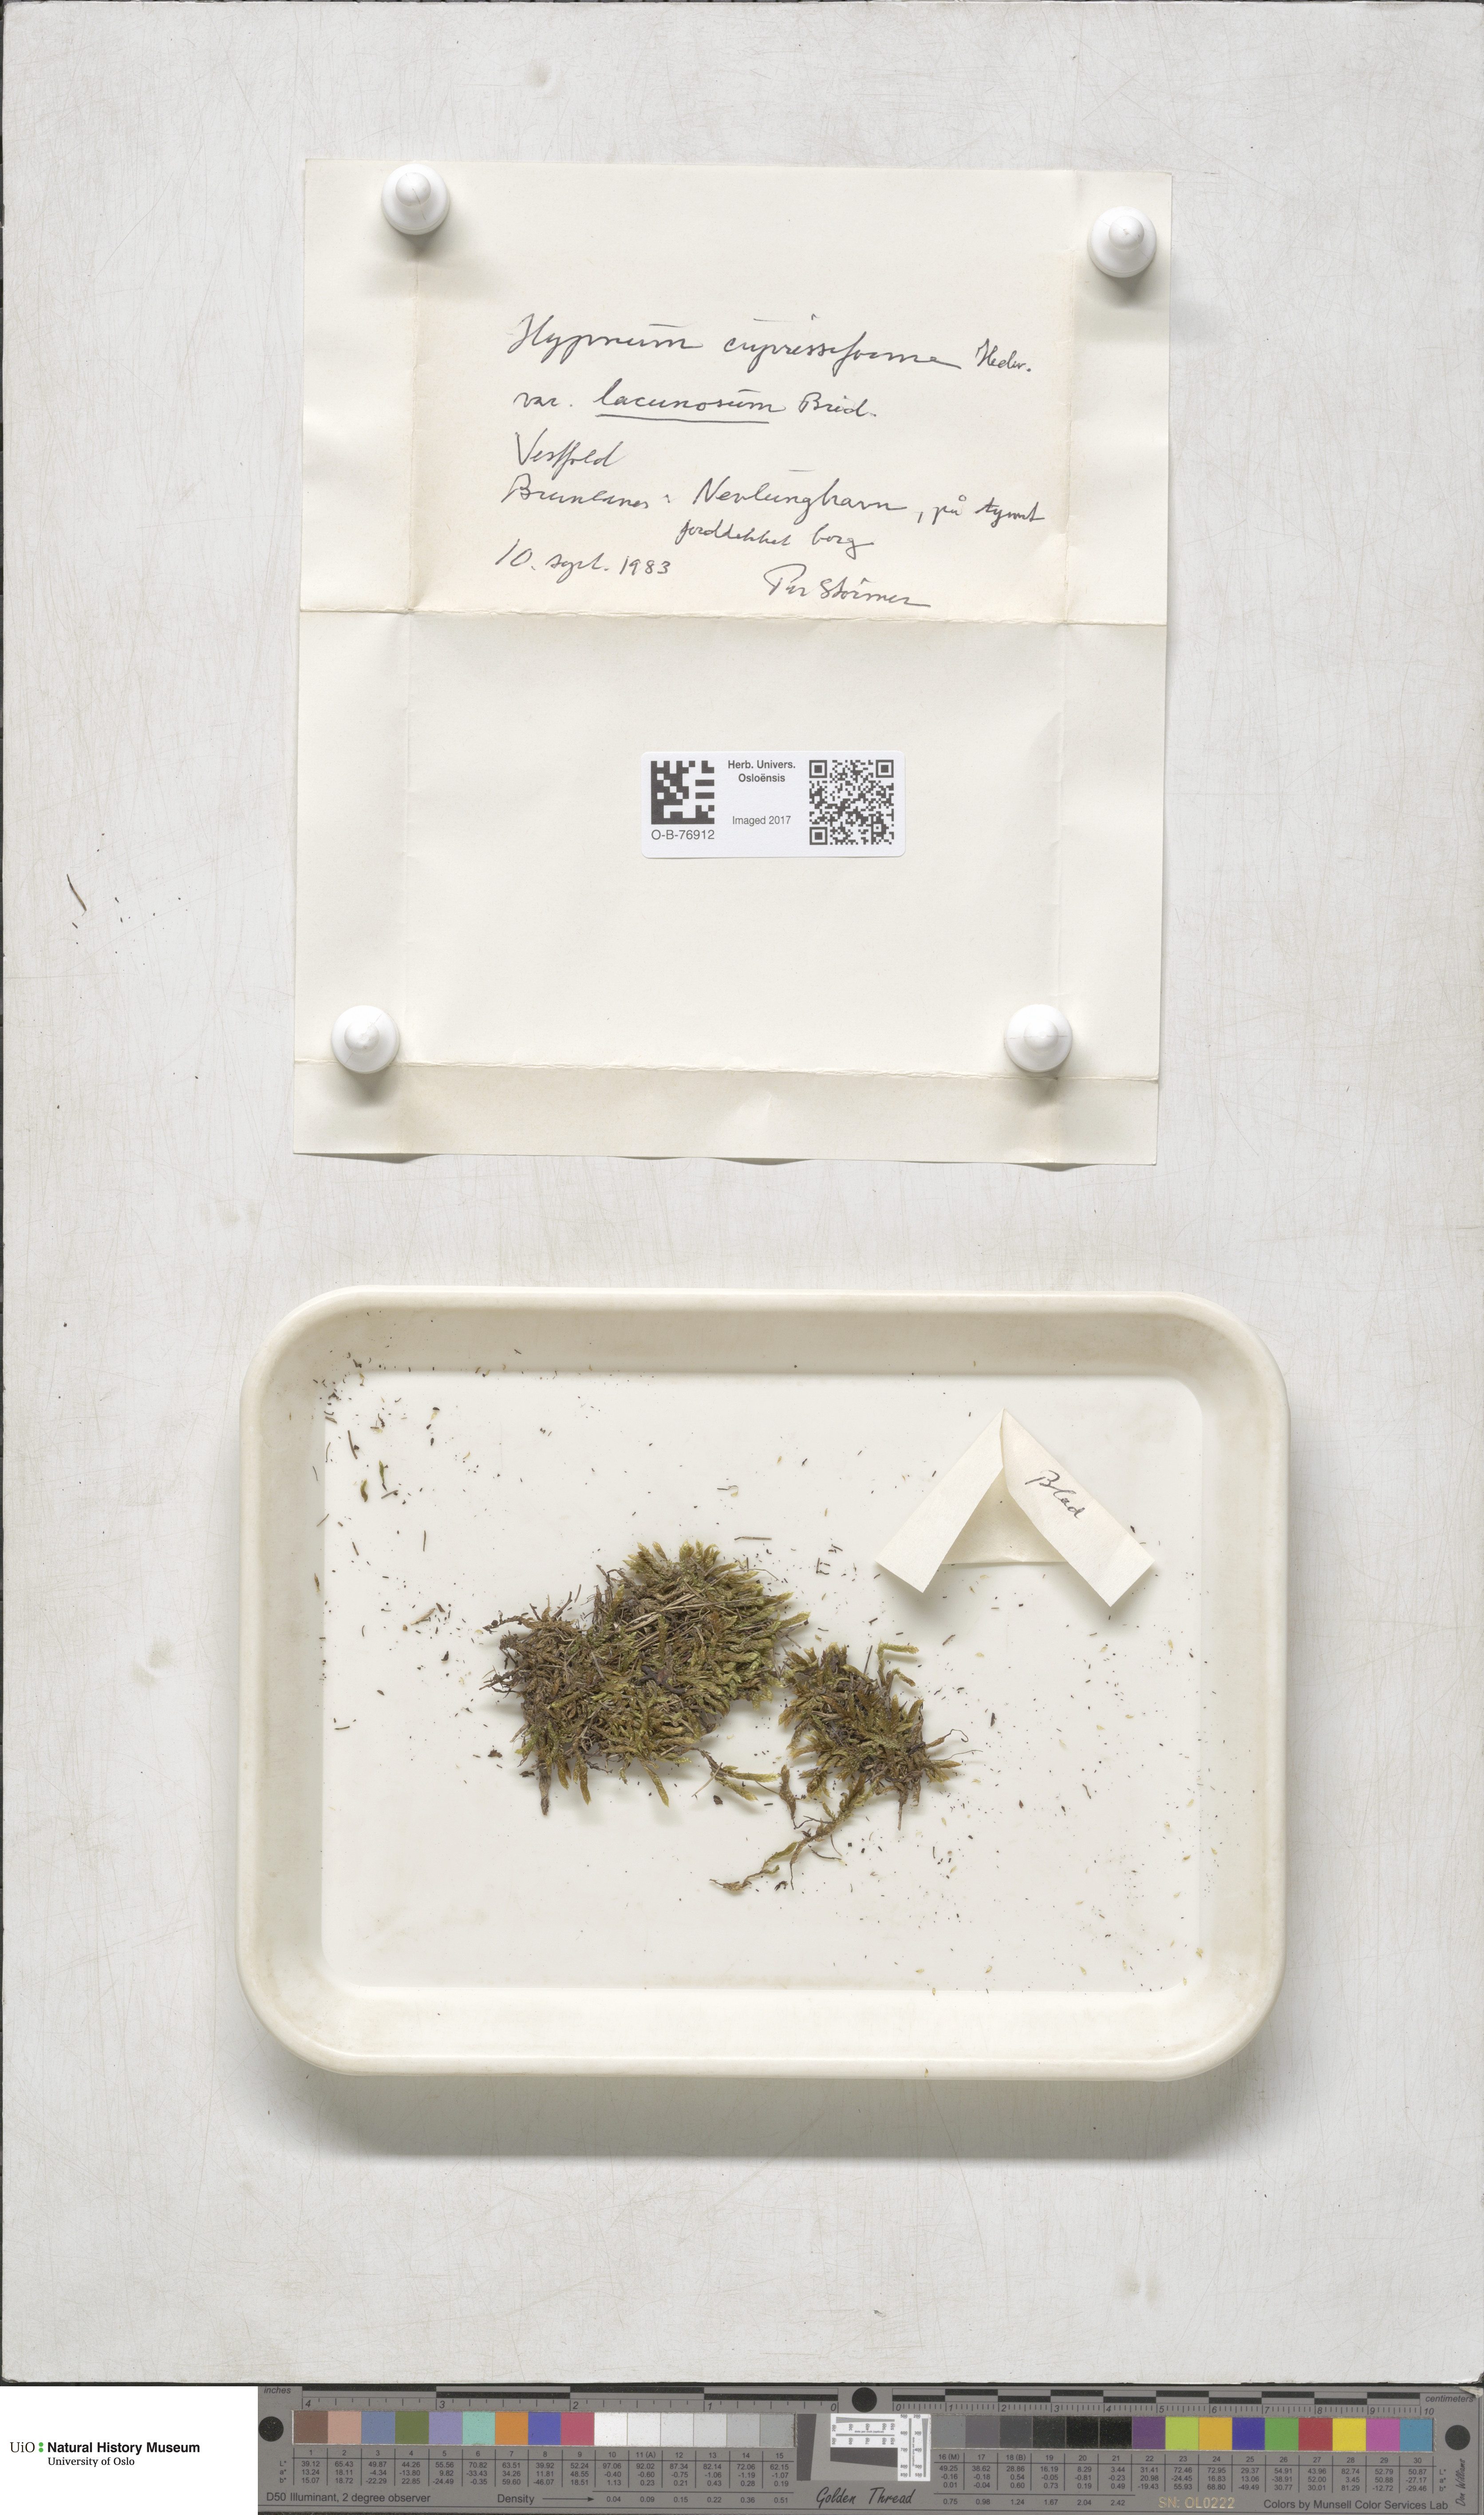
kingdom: Plantae
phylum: Bryophyta
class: Bryopsida
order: Hypnales
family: Hypnaceae
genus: Hypnum
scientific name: Hypnum cupressiforme
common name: Cypress-leaved plait-moss
